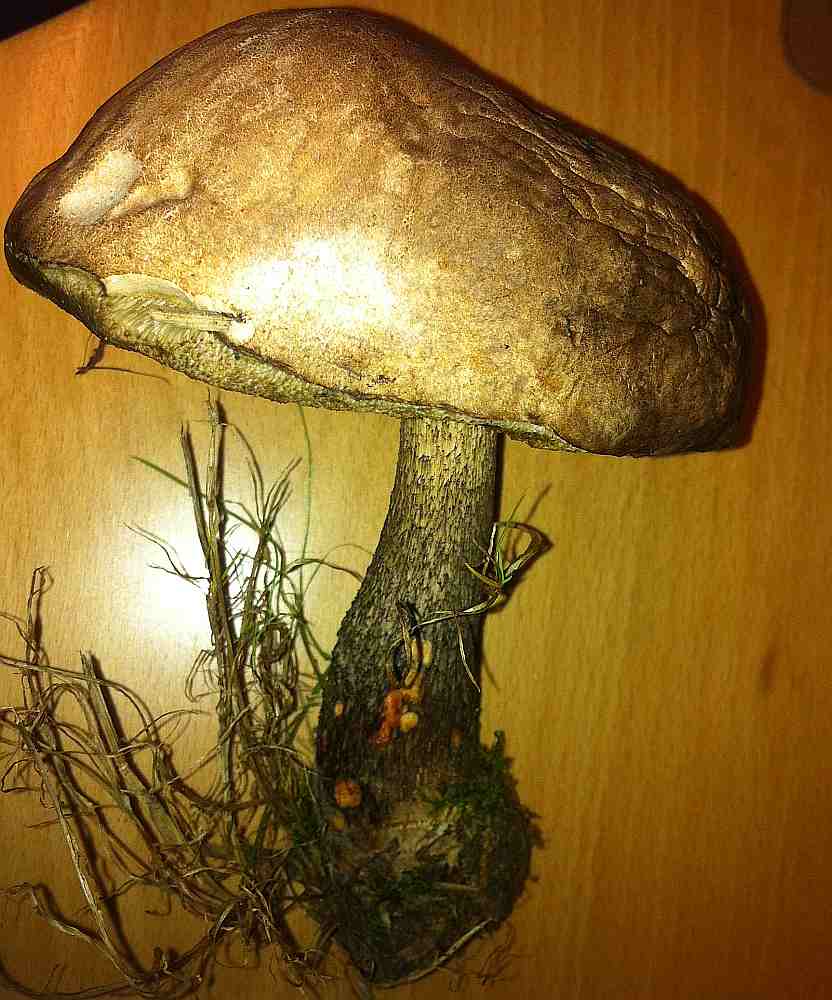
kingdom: Fungi
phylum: Basidiomycota
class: Agaricomycetes
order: Boletales
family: Boletaceae
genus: Leccinum
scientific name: Leccinum scabrum
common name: brun skælrørhat
